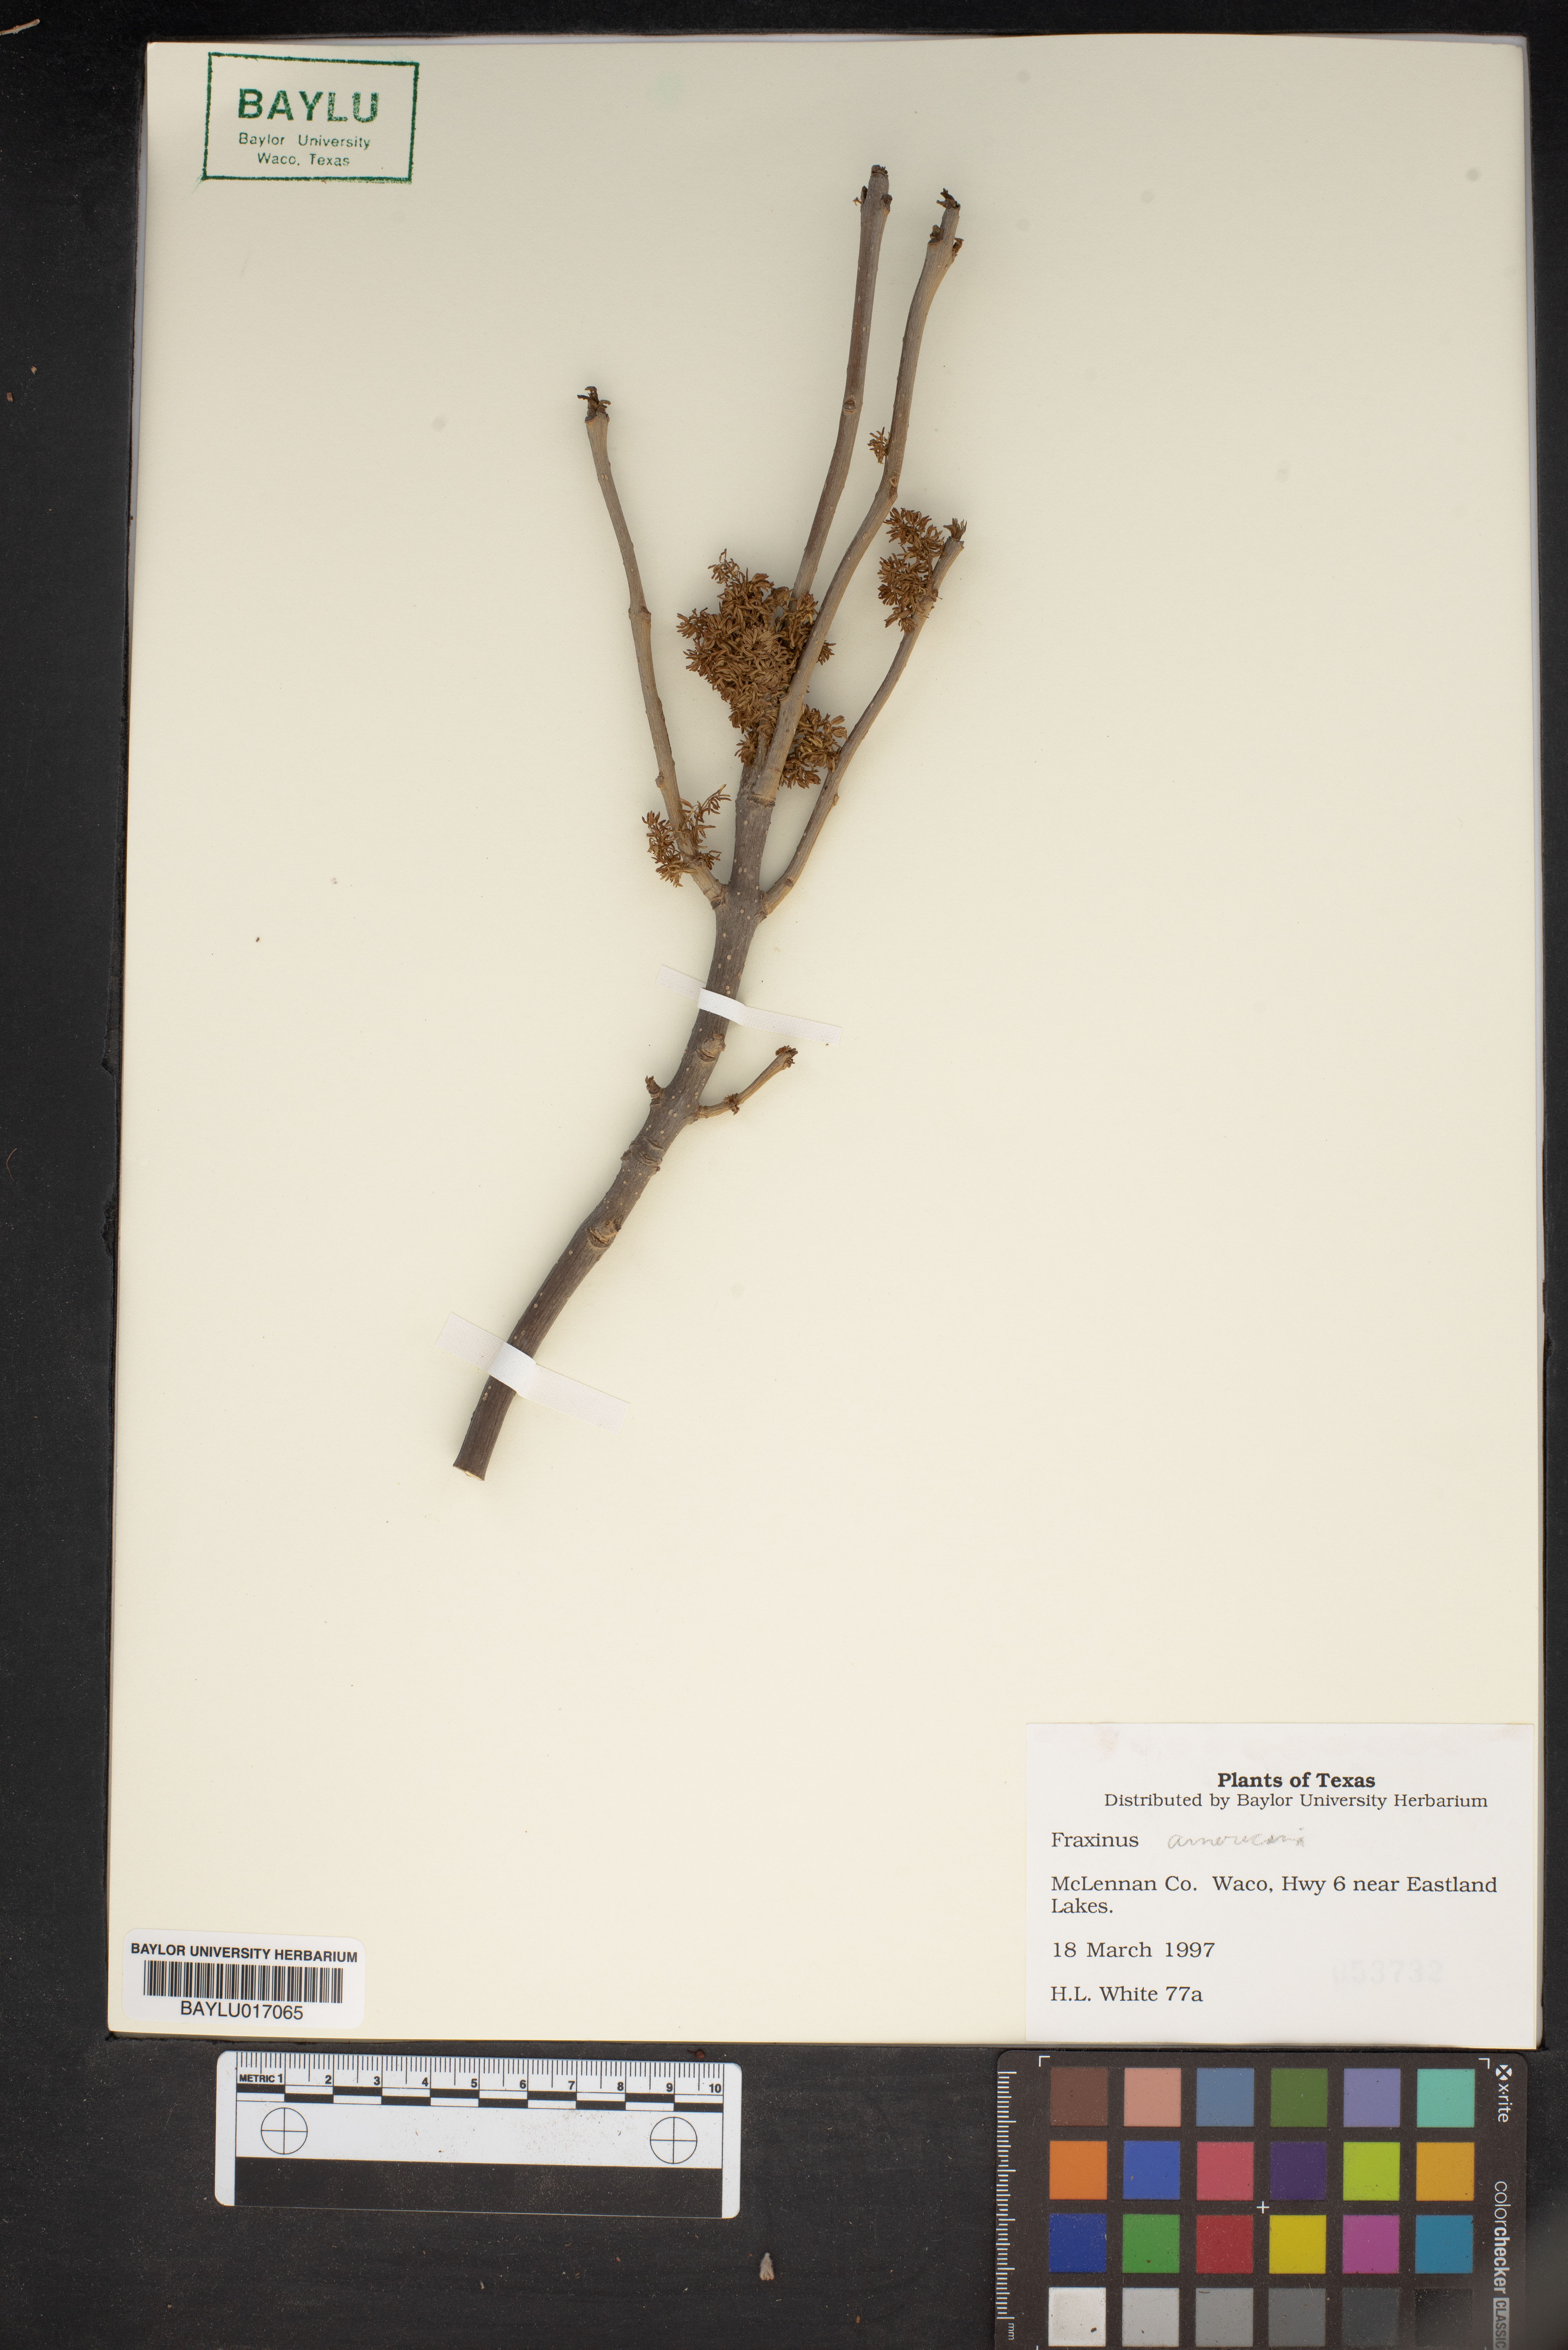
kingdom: Plantae
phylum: Tracheophyta
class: Magnoliopsida
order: Lamiales
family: Oleaceae
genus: Fraxinus
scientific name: Fraxinus americana
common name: White ash
